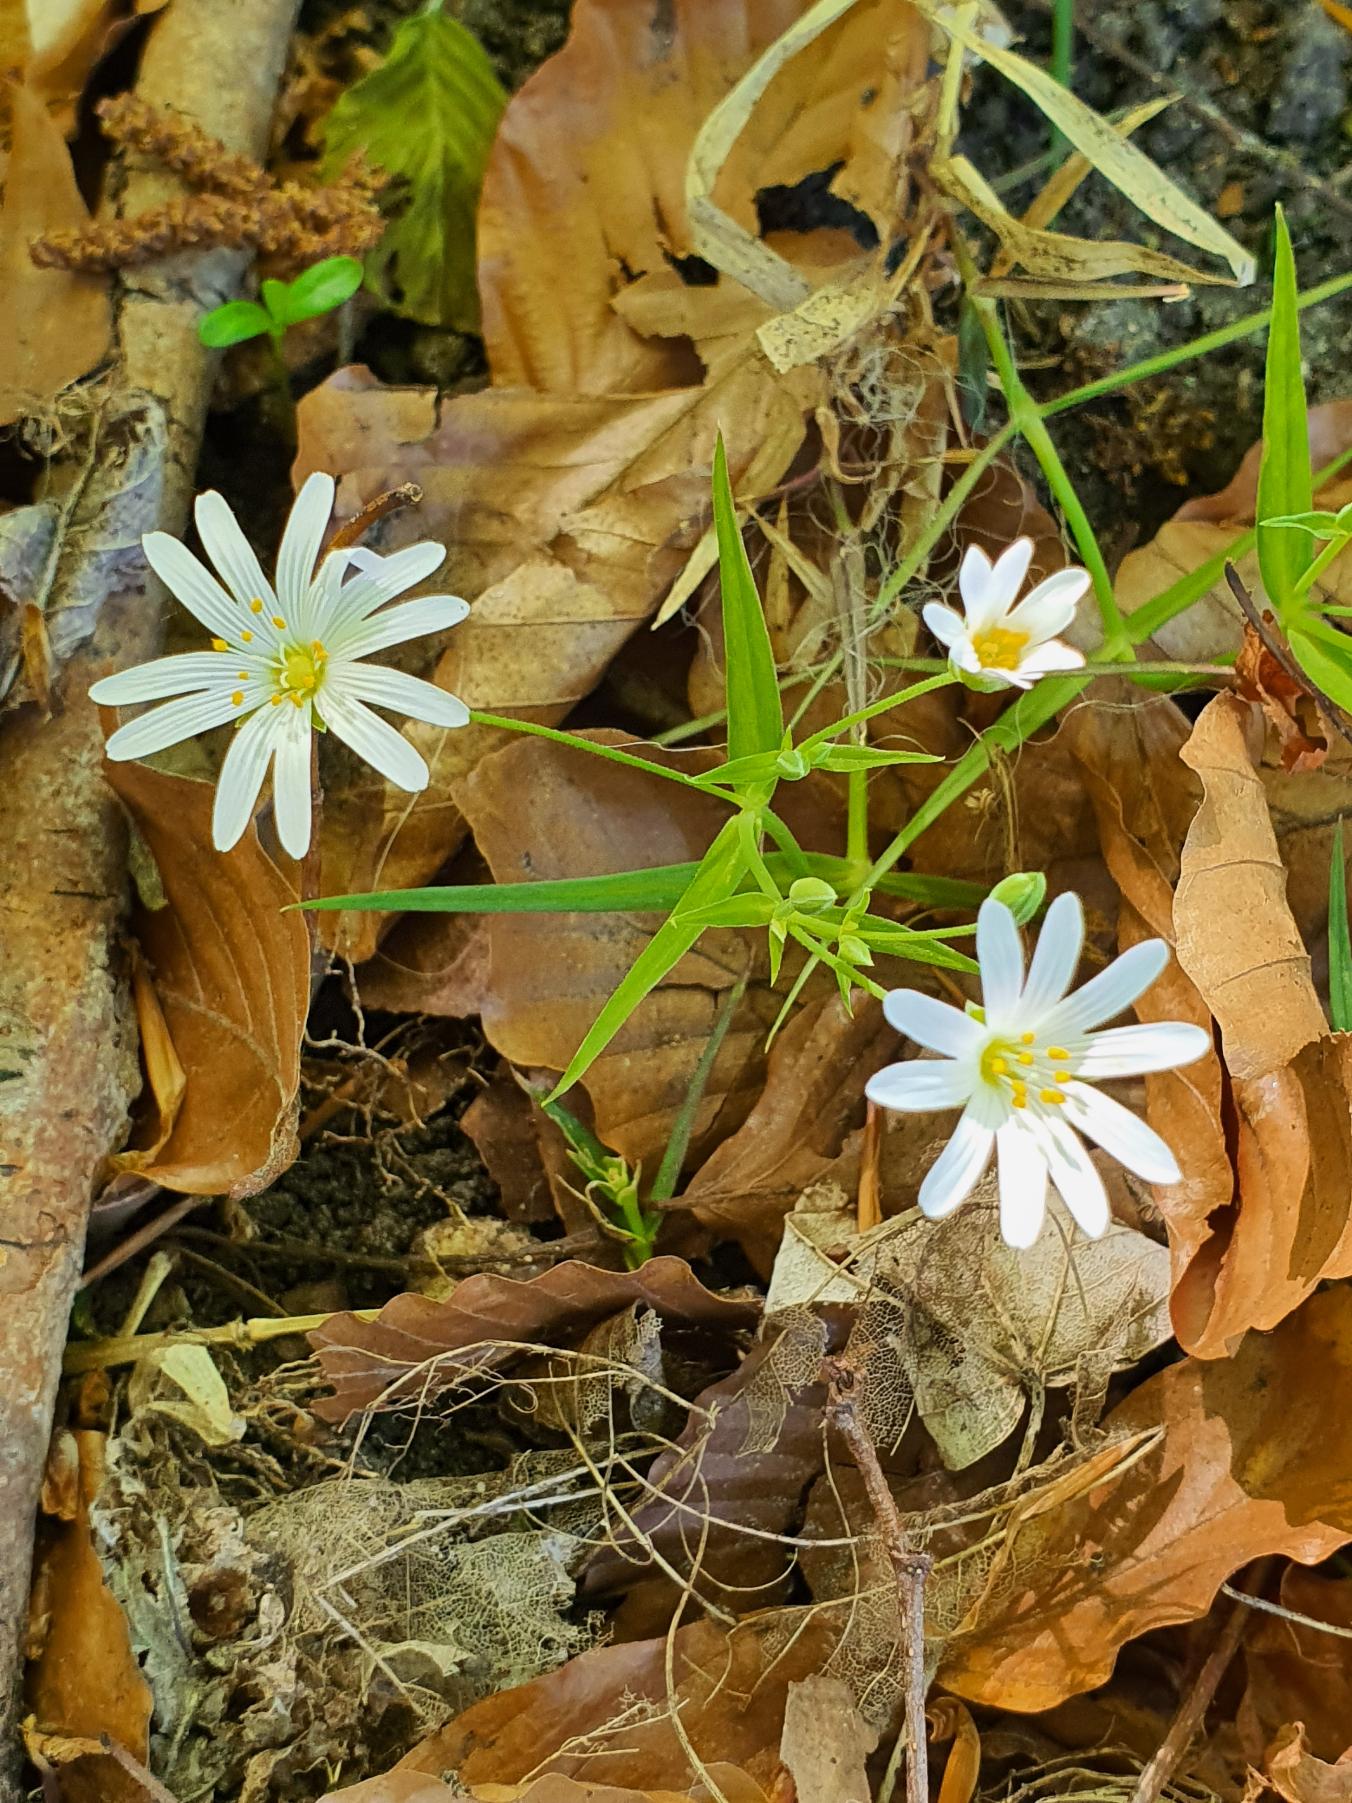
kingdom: Plantae
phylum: Tracheophyta
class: Magnoliopsida
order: Caryophyllales
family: Caryophyllaceae
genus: Rabelera
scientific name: Rabelera holostea
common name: Stor fladstjerne
